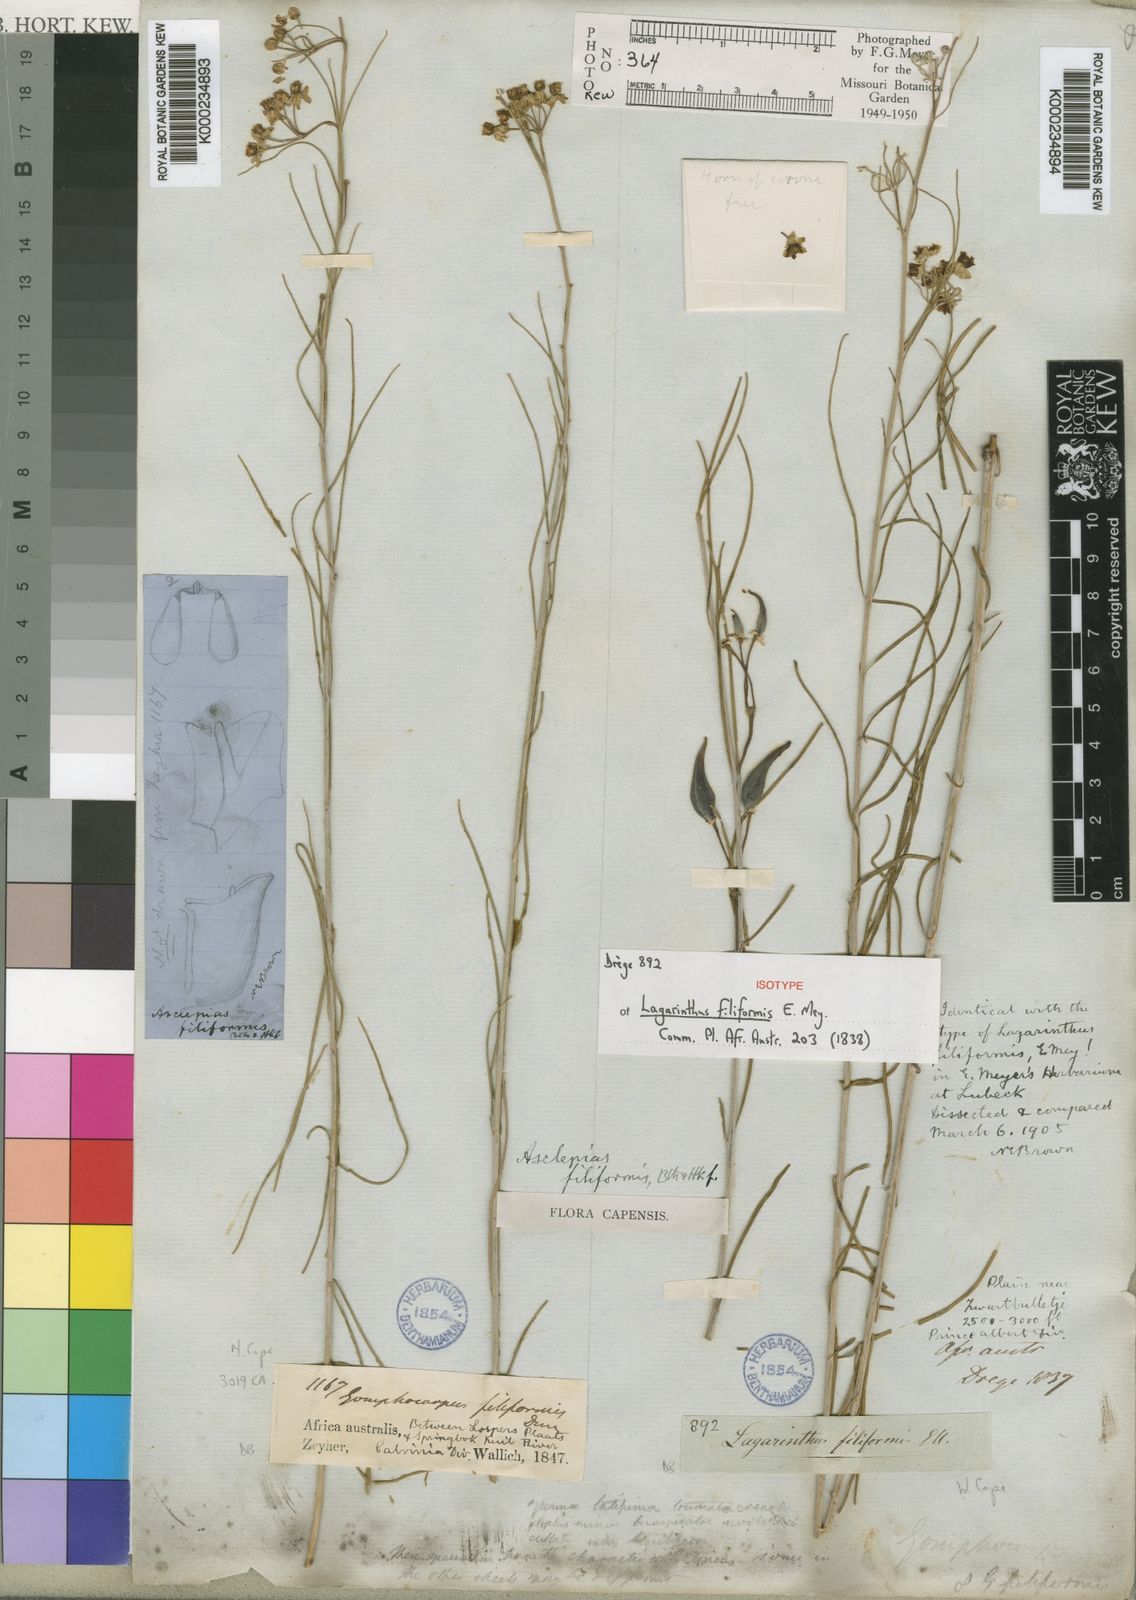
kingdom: Plantae
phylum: Tracheophyta
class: Magnoliopsida
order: Gentianales
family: Apocynaceae
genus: Gomphocarpus
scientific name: Gomphocarpus filiformis
